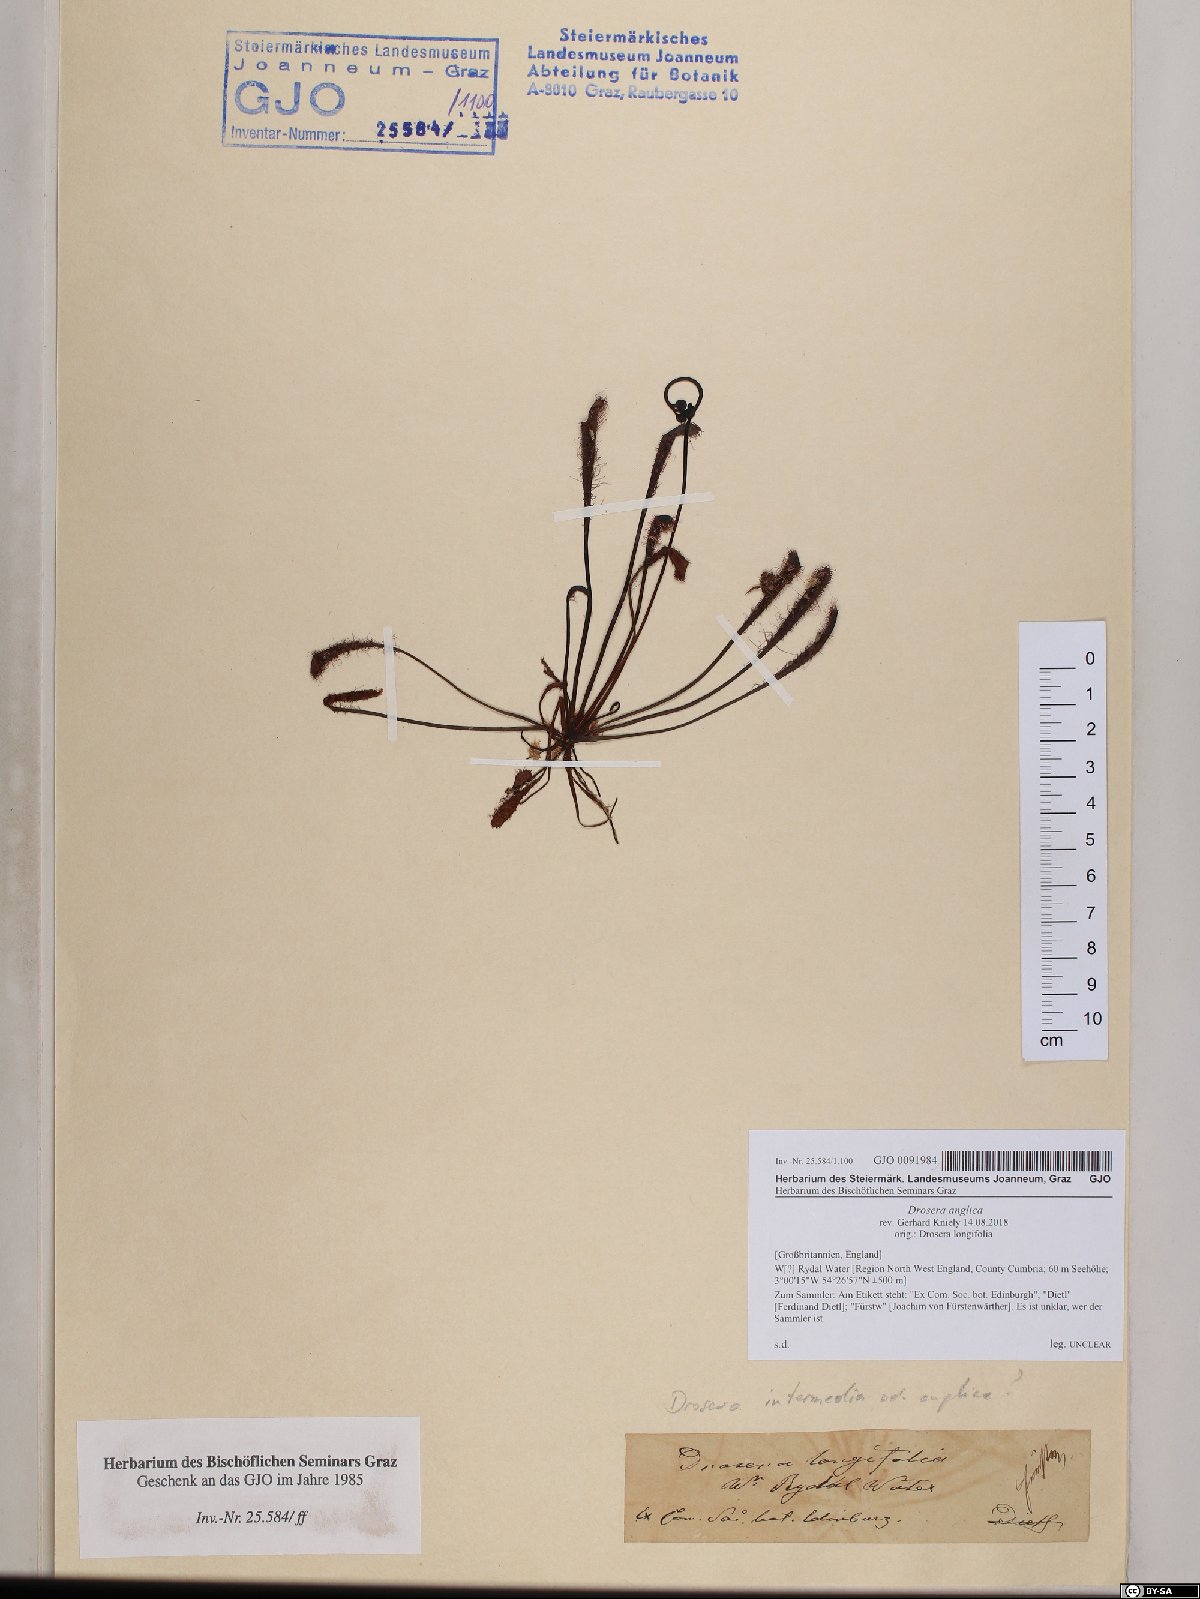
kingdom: Plantae
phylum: Tracheophyta
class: Magnoliopsida
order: Caryophyllales
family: Droseraceae
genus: Drosera
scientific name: Drosera anglica
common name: Great sundew
